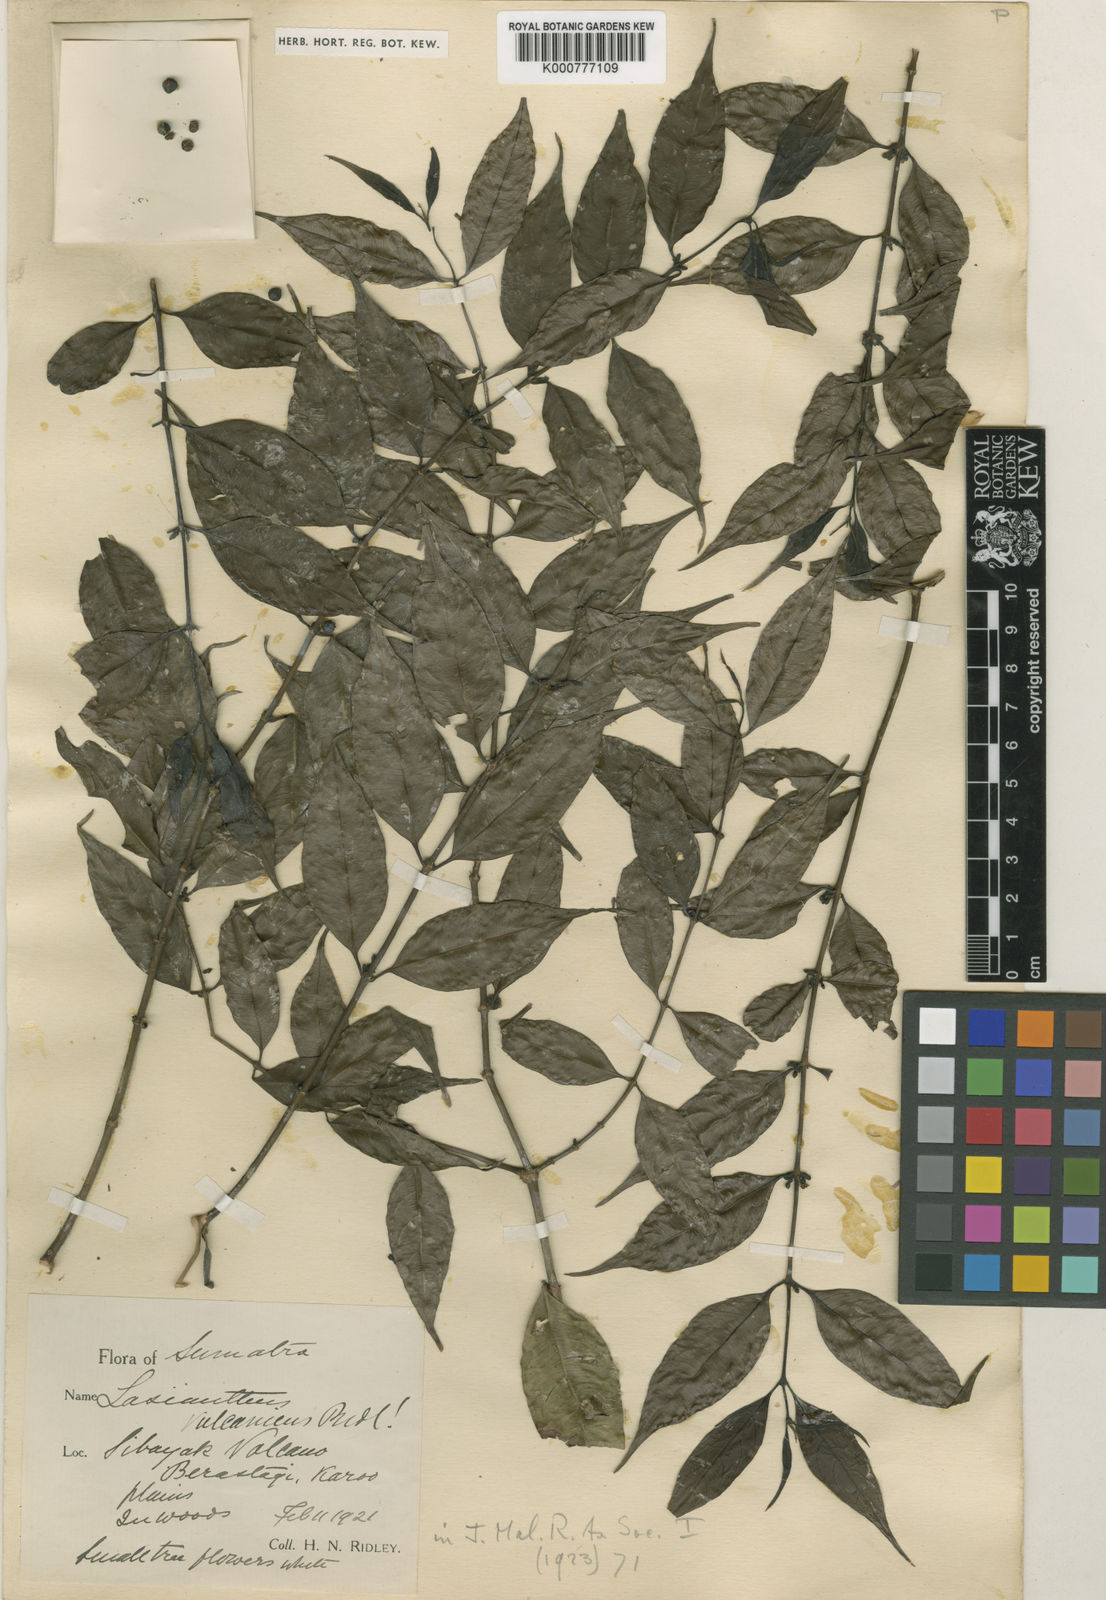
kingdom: Plantae
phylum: Tracheophyta
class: Magnoliopsida
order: Gentianales
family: Rubiaceae
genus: Lasianthus
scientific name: Lasianthus vulcanicus
